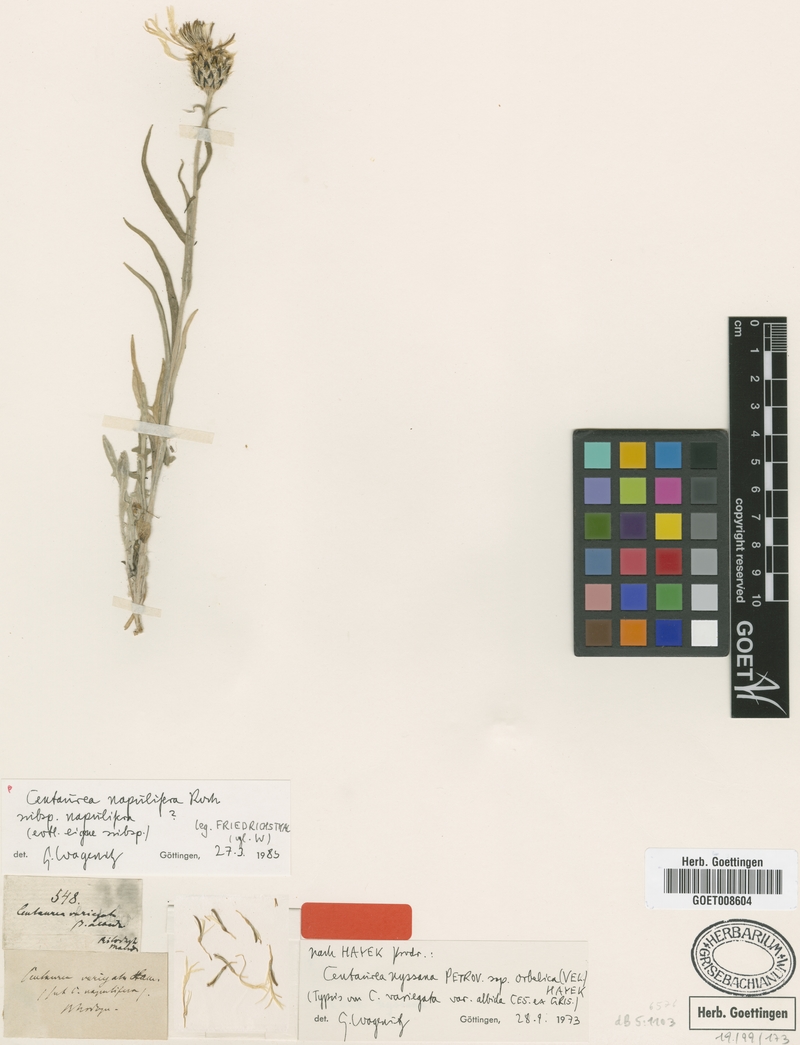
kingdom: Plantae
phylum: Tracheophyta
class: Magnoliopsida
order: Asterales
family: Asteraceae
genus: Centaurea
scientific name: Centaurea napulifera
